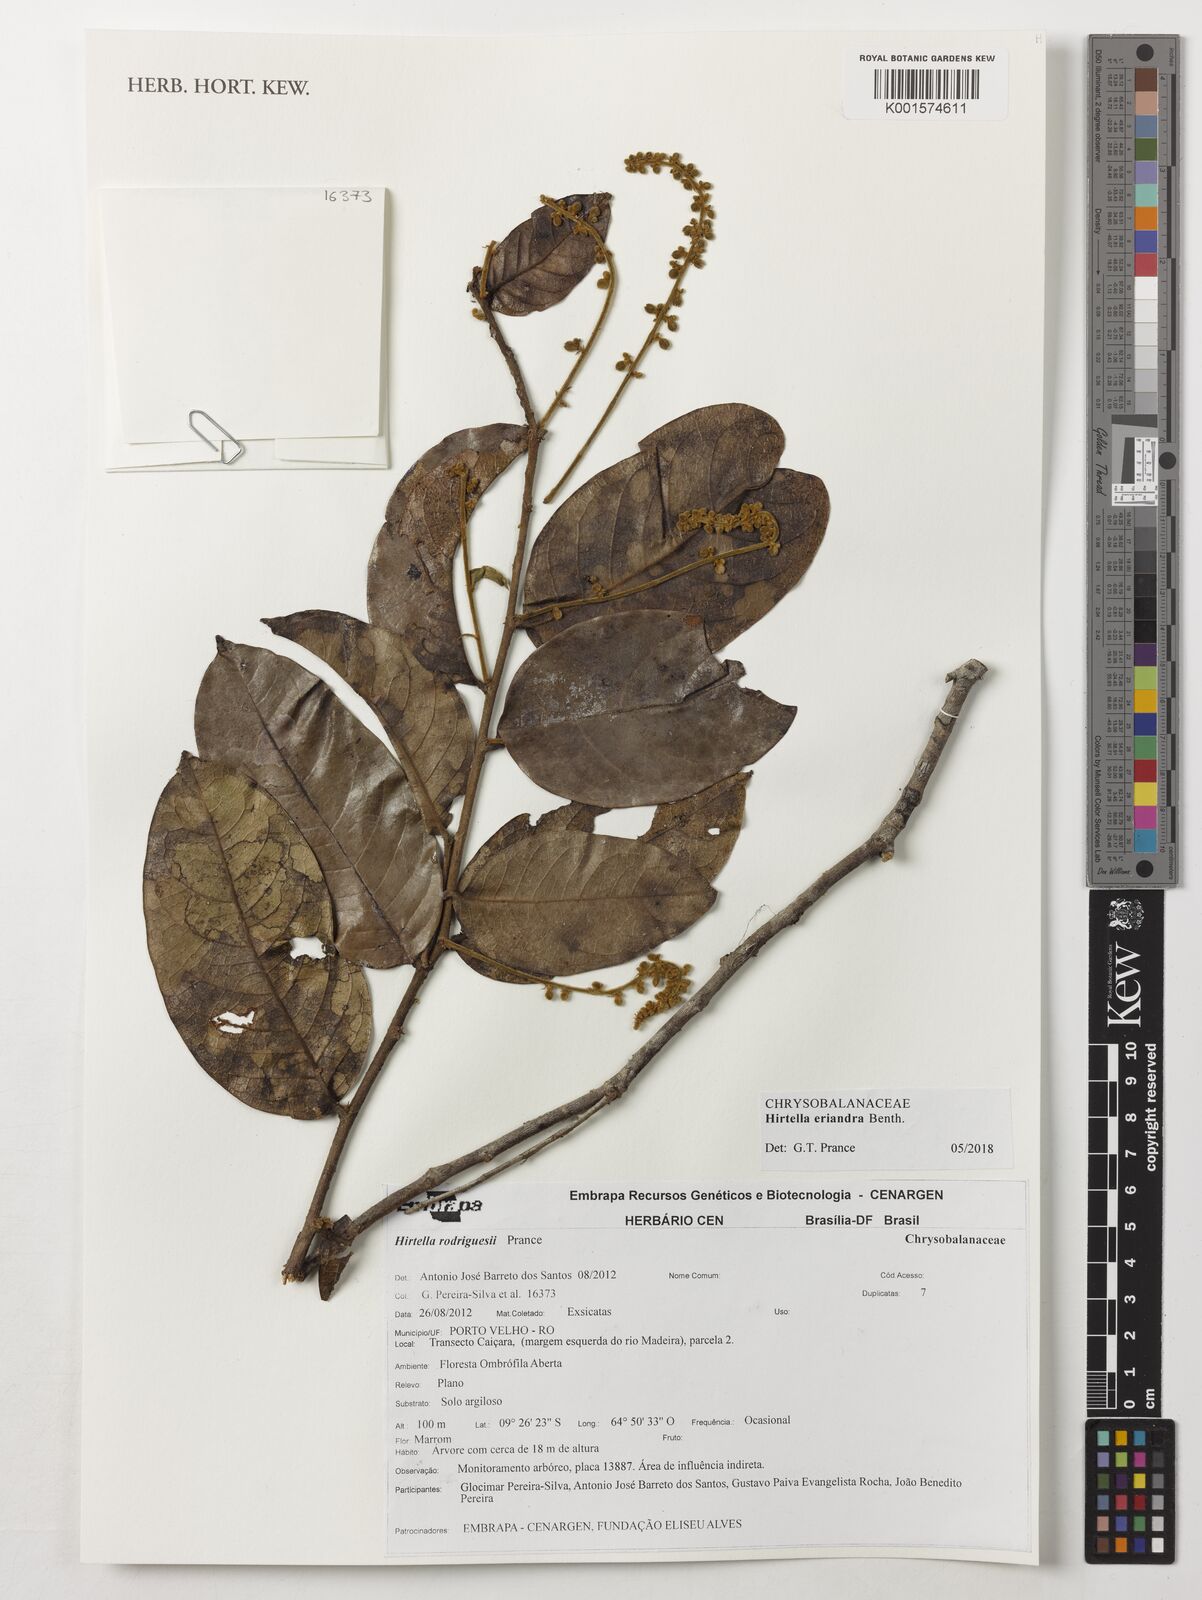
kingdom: Plantae
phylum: Tracheophyta
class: Magnoliopsida
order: Malpighiales
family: Chrysobalanaceae
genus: Hirtella
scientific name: Hirtella eriandra
